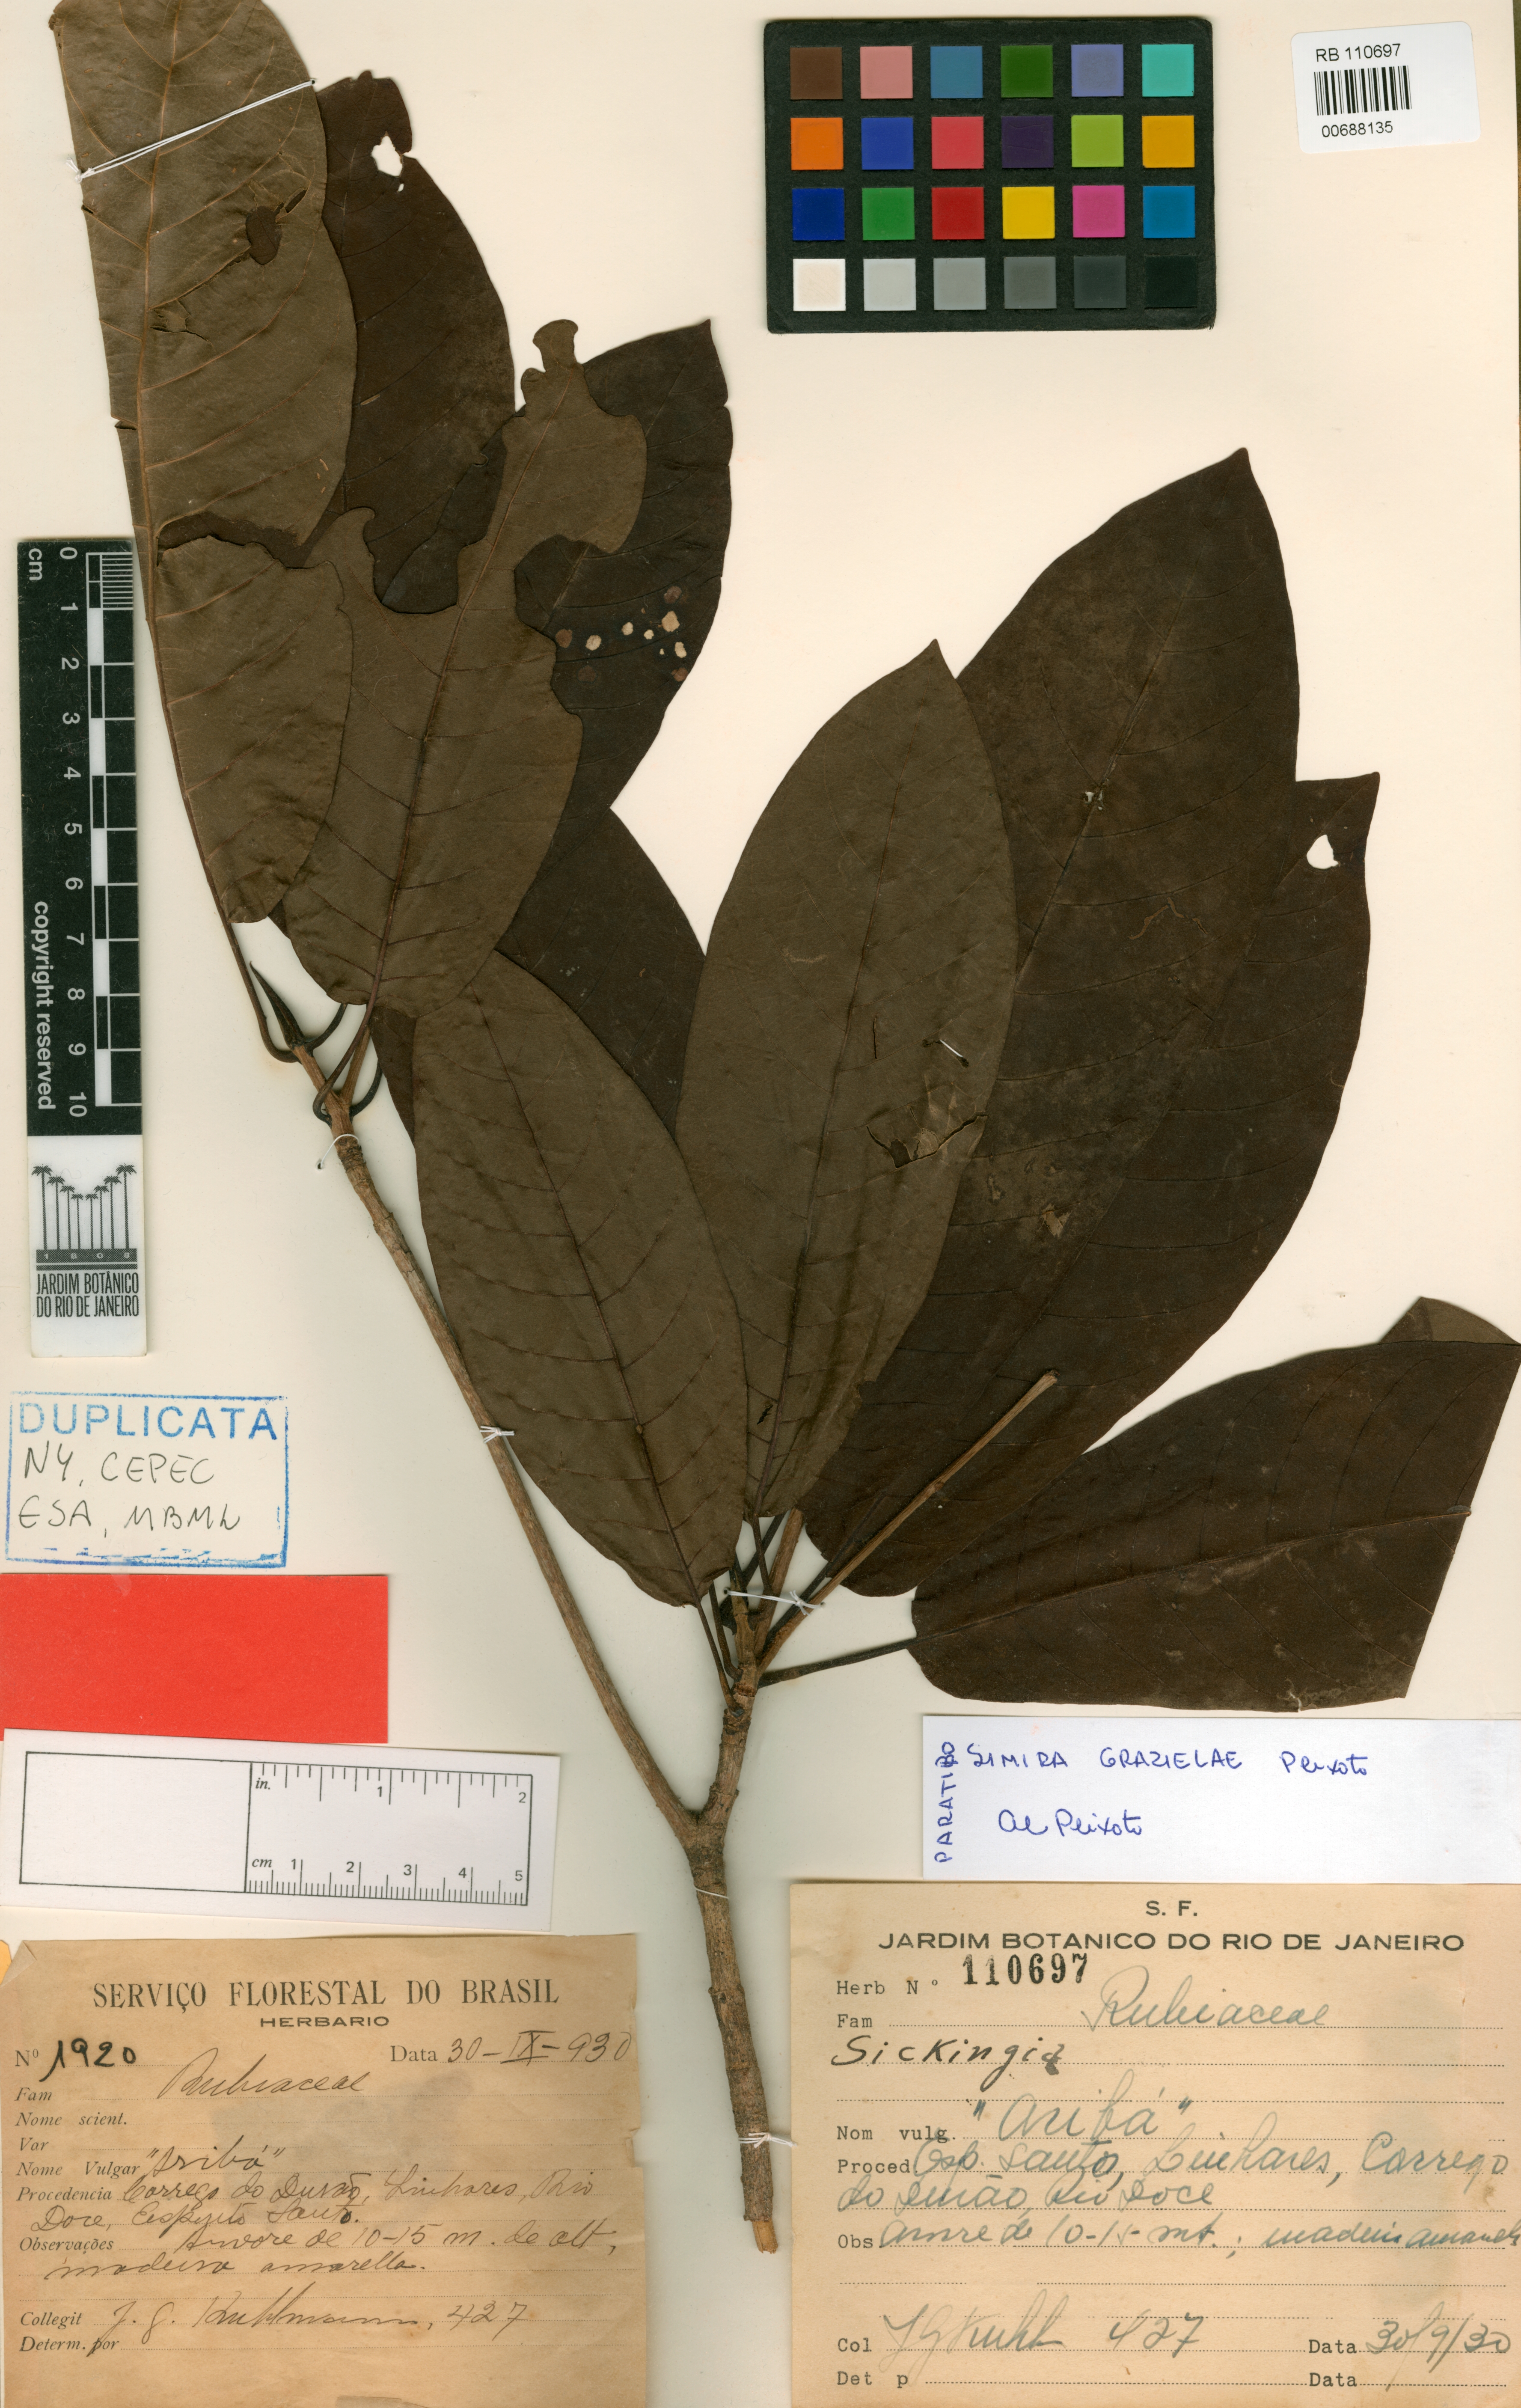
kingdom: Plantae
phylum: Tracheophyta
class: Magnoliopsida
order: Gentianales
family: Rubiaceae
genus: Simira
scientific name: Simira grazielae
